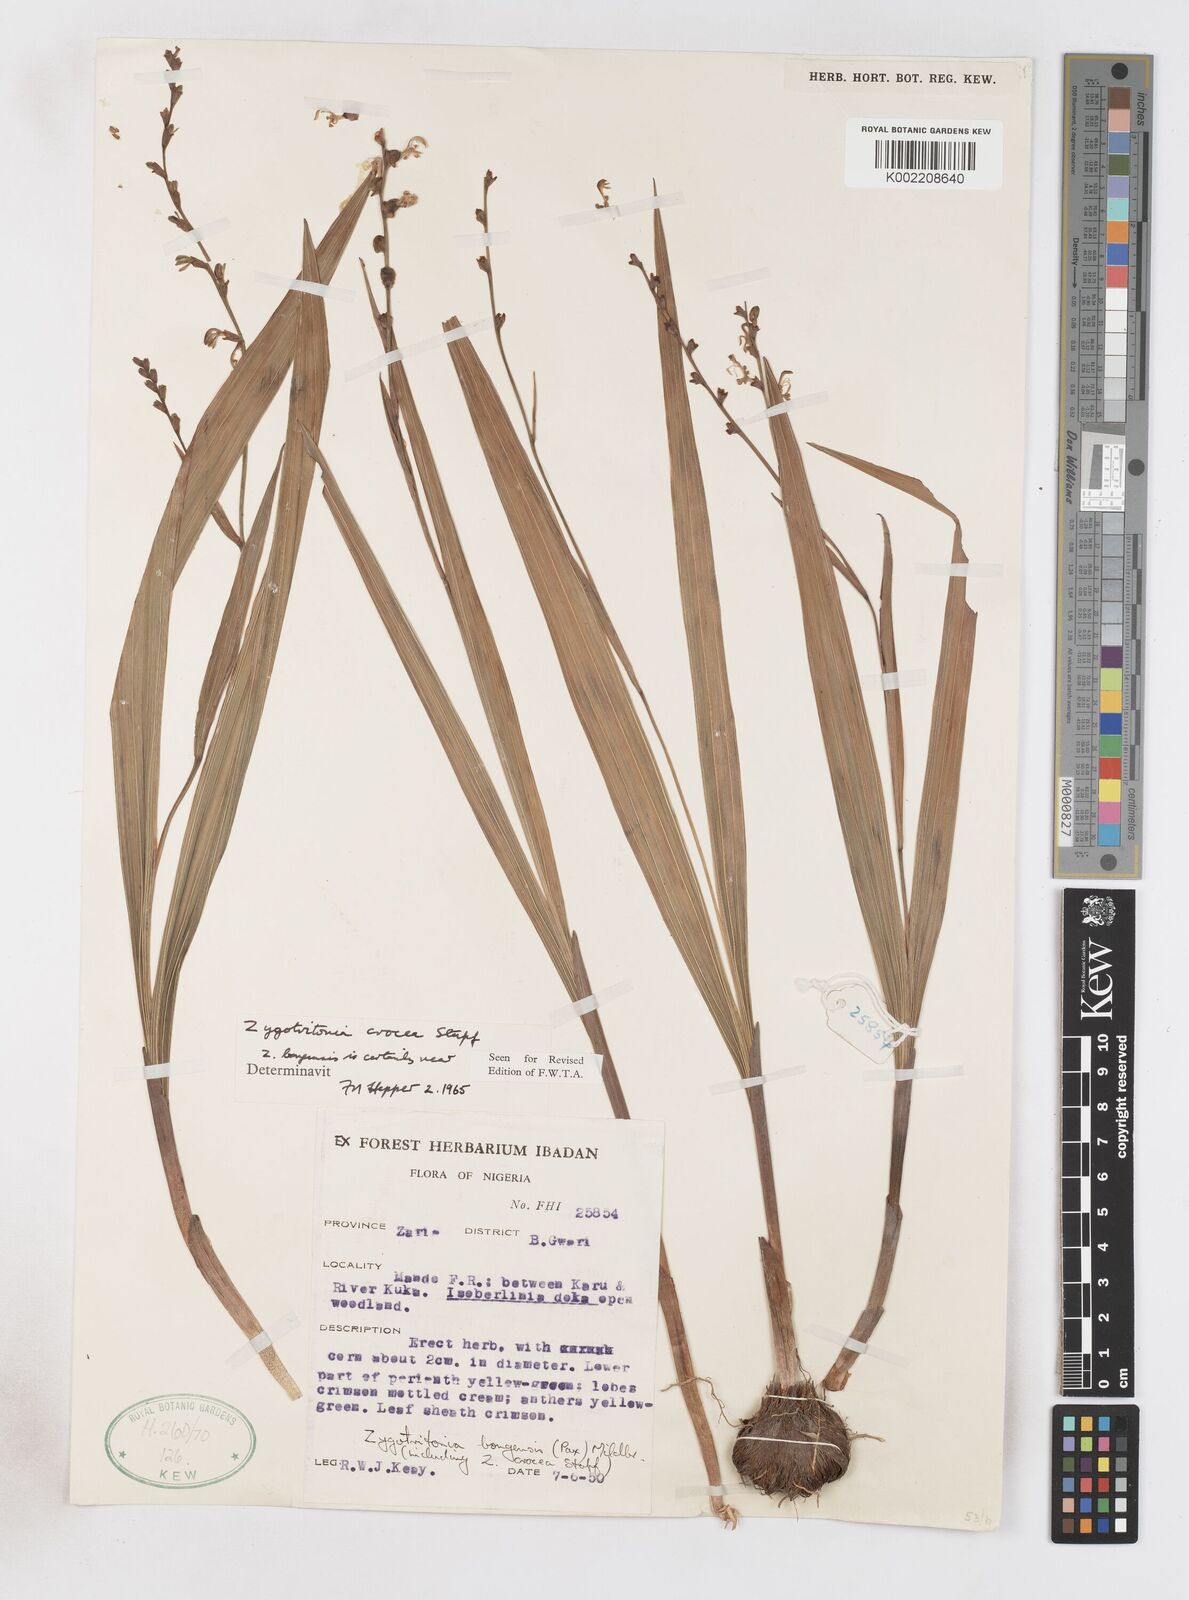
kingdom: Plantae
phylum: Tracheophyta
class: Liliopsida
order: Asparagales
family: Iridaceae
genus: Savannosiphon
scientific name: Savannosiphon
